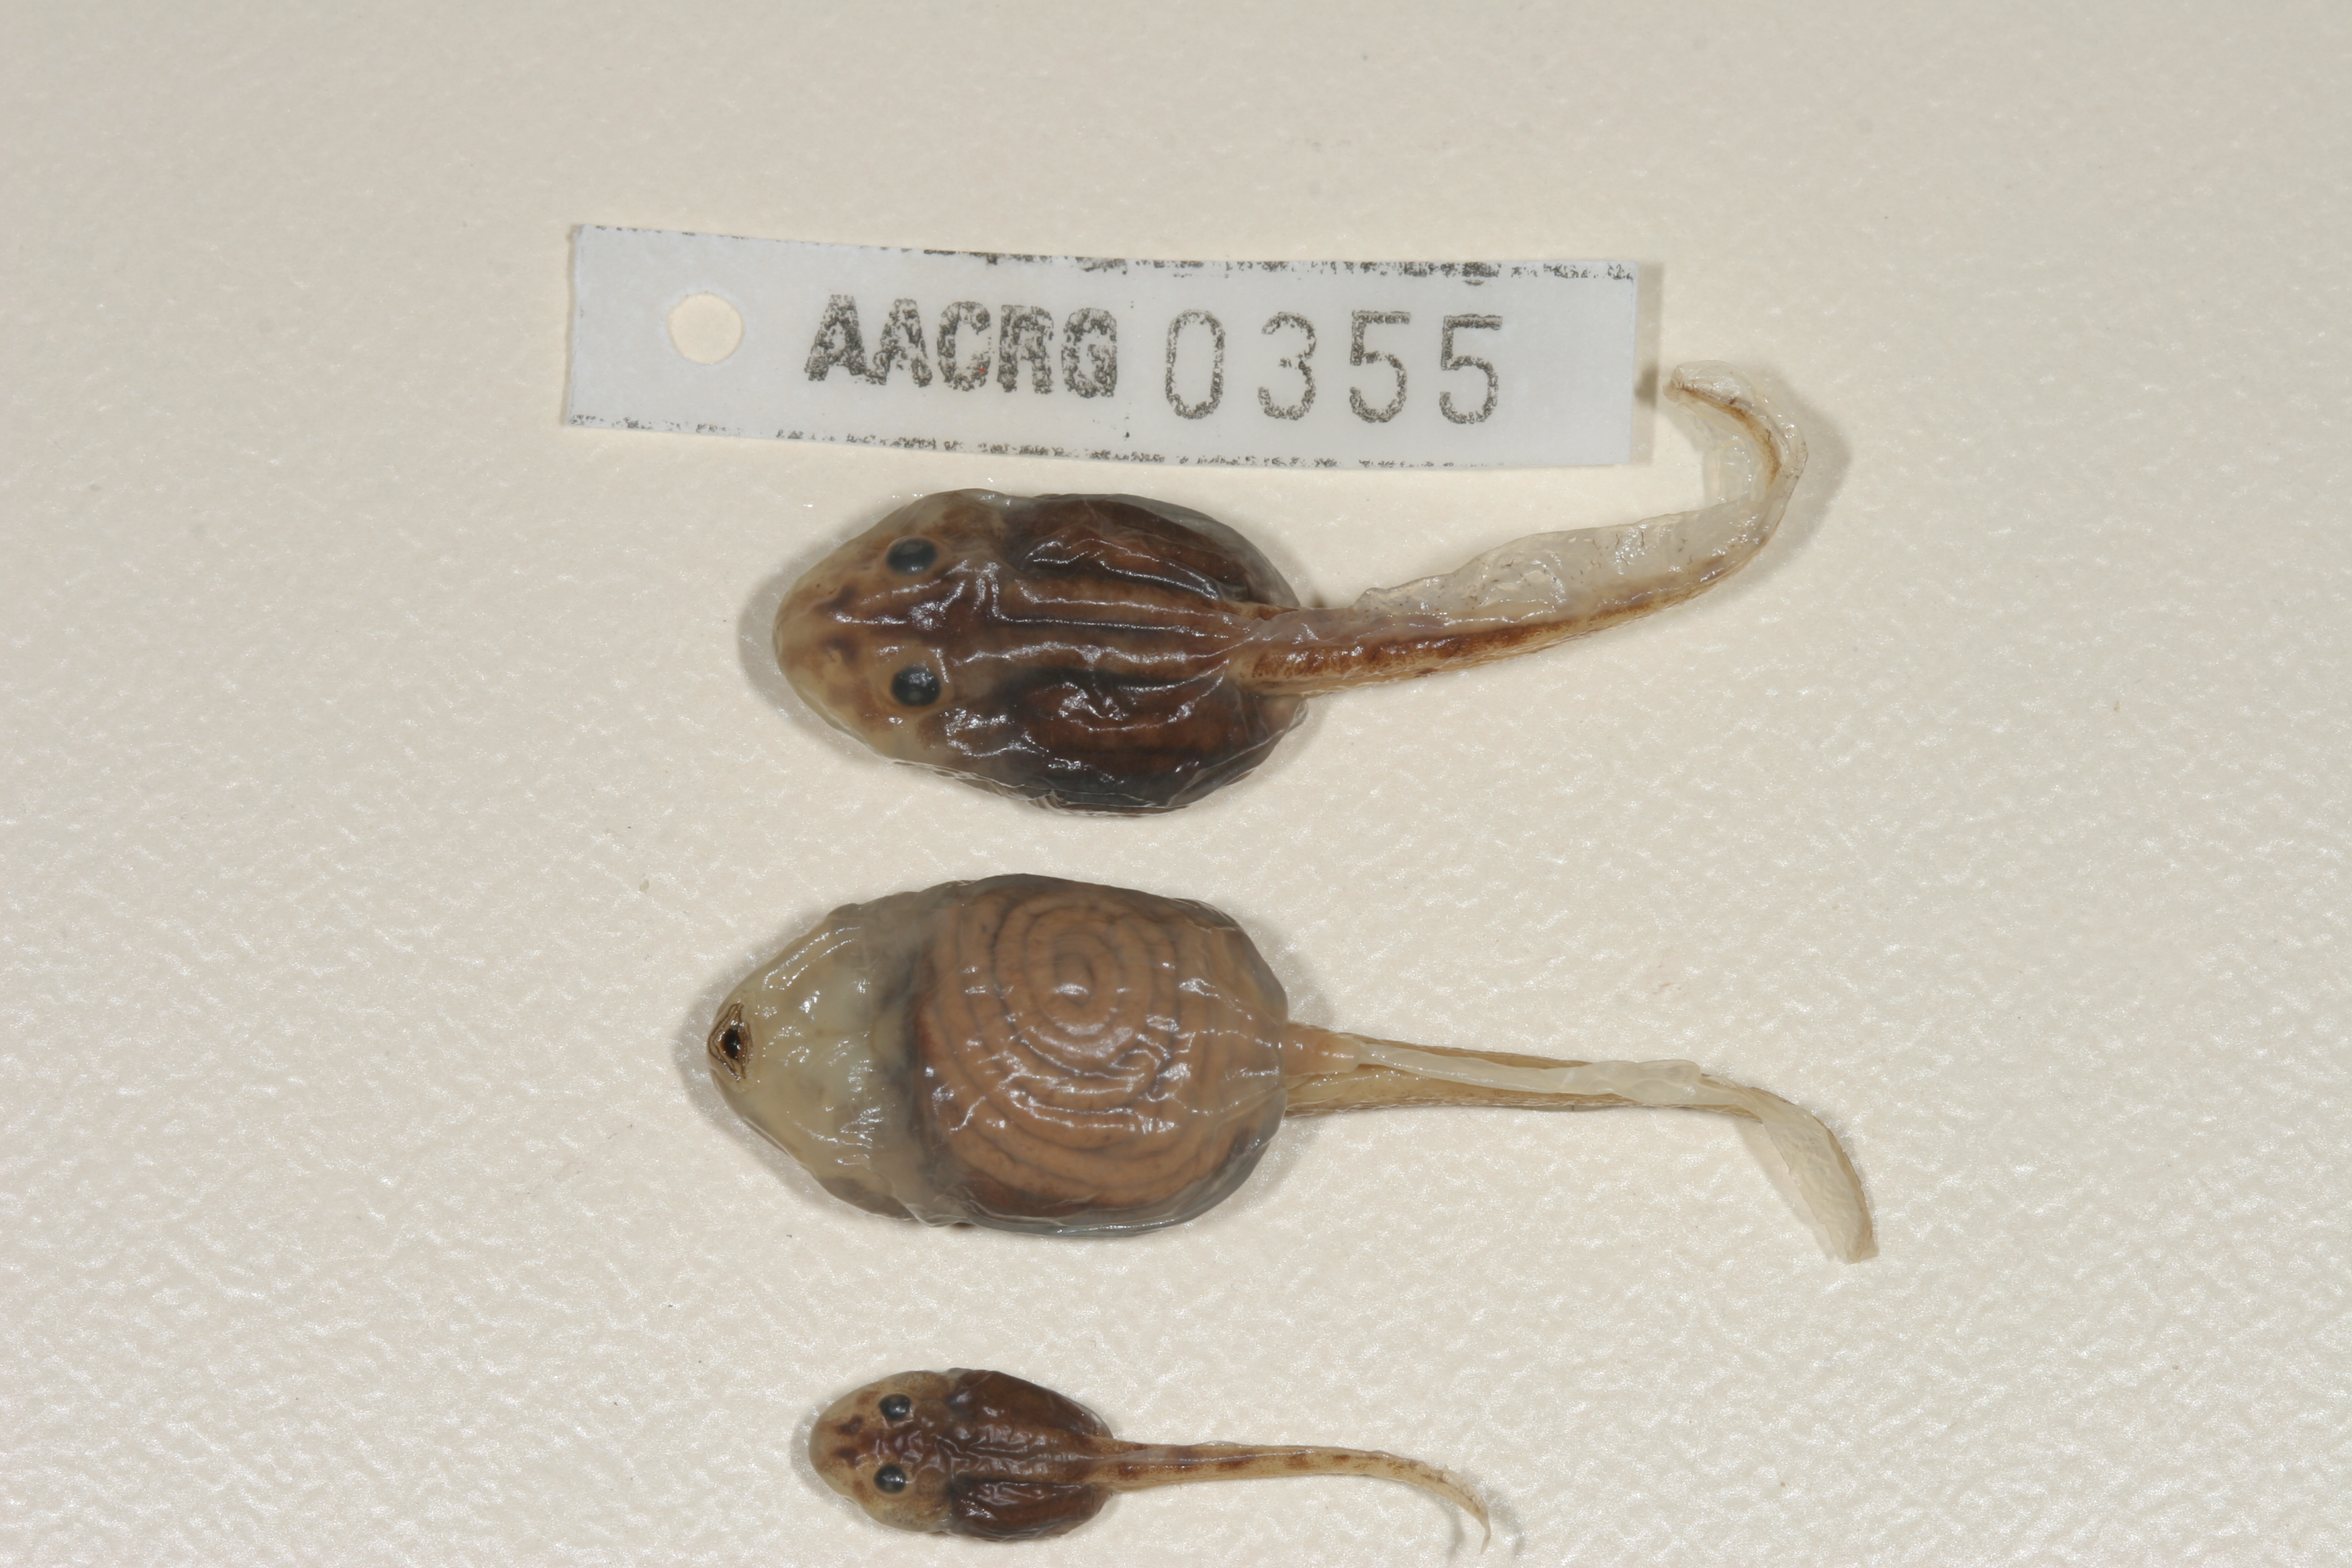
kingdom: Animalia
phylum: Chordata
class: Amphibia
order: Anura
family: Pyxicephalidae
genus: Tomopterna
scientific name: Tomopterna tandyi
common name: Tandy's sand frog
